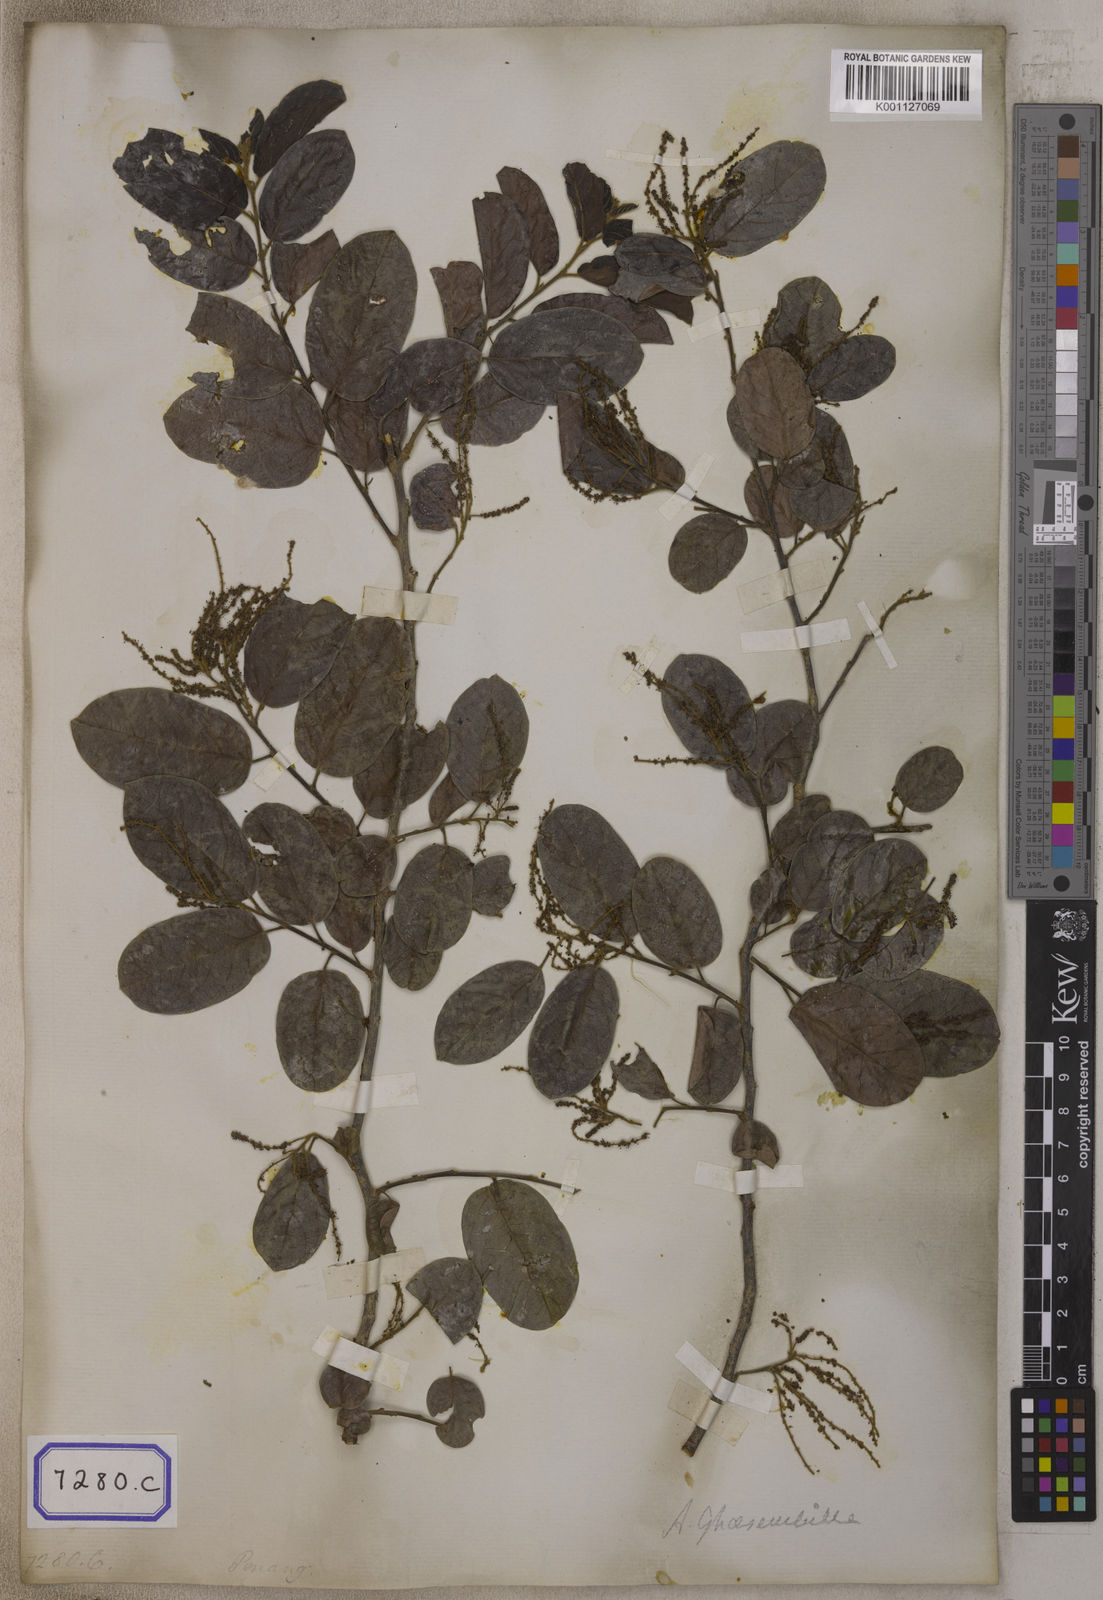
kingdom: Plantae
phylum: Tracheophyta
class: Magnoliopsida
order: Malpighiales
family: Phyllanthaceae
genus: Antidesma
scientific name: Antidesma
